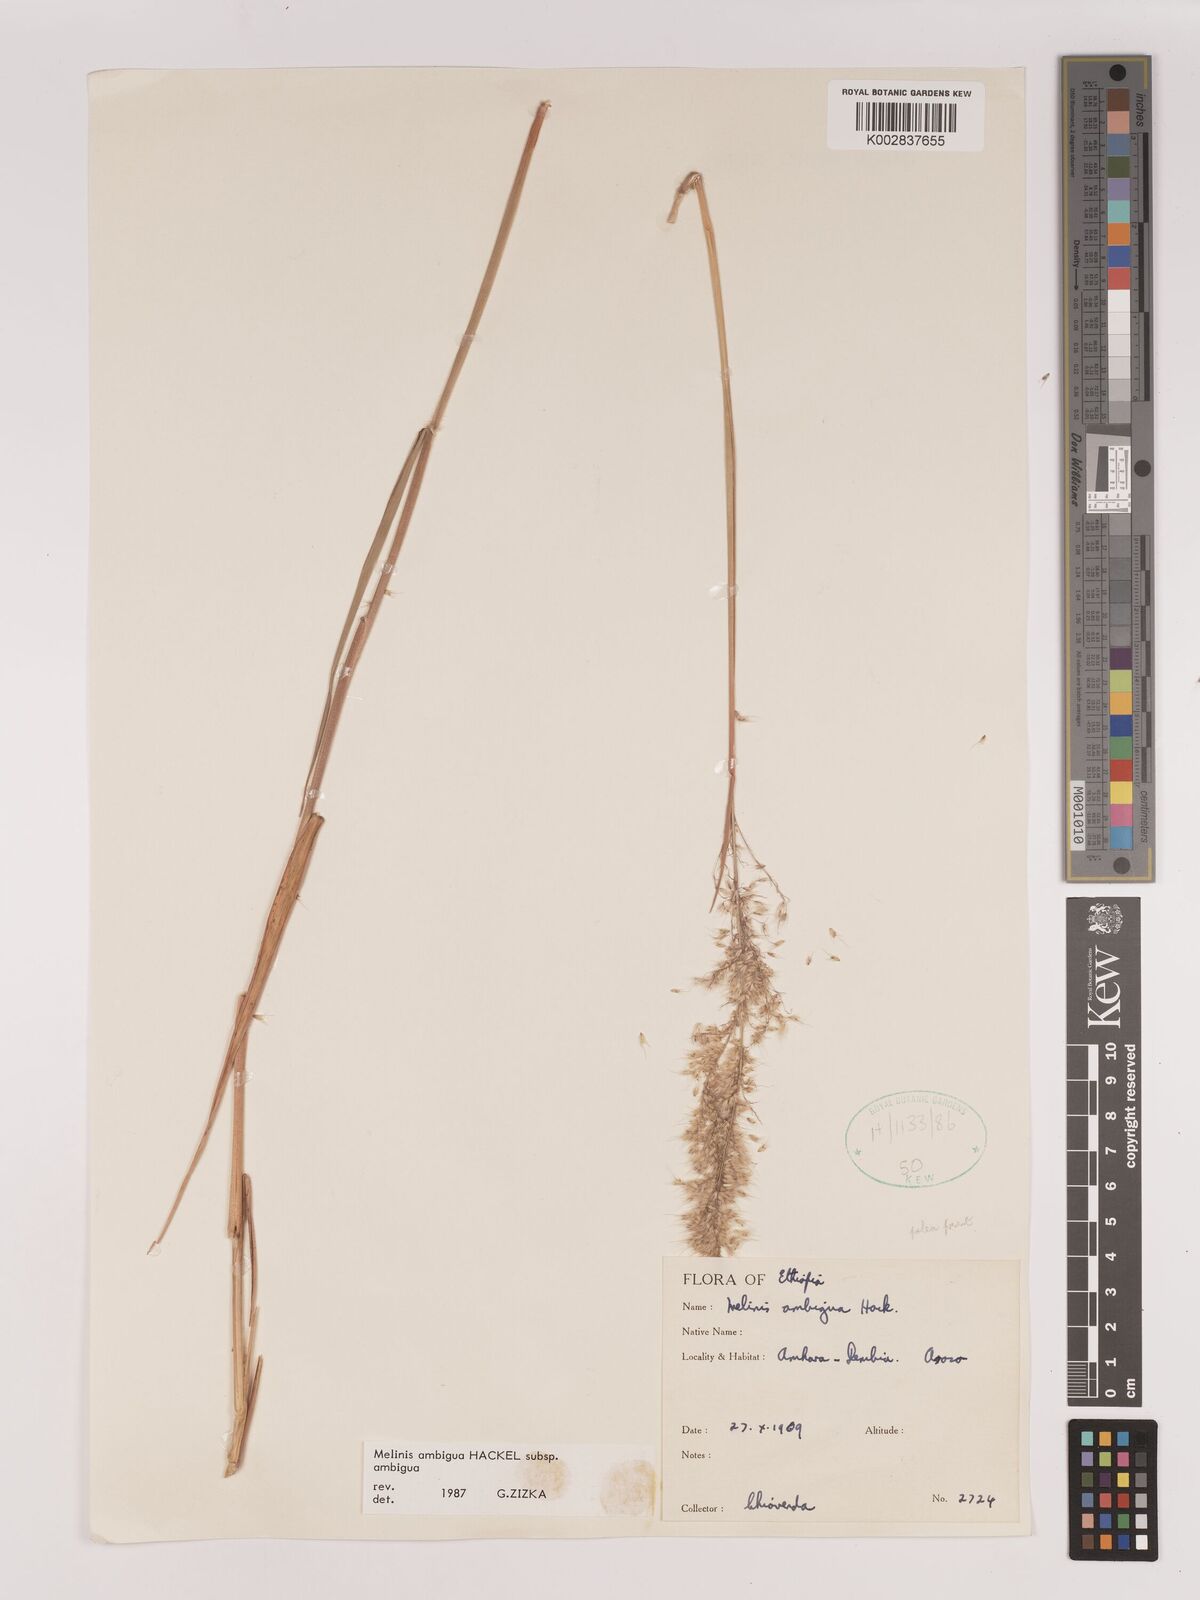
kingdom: Plantae
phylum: Tracheophyta
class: Liliopsida
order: Poales
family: Poaceae
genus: Melinis
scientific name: Melinis ambigua
